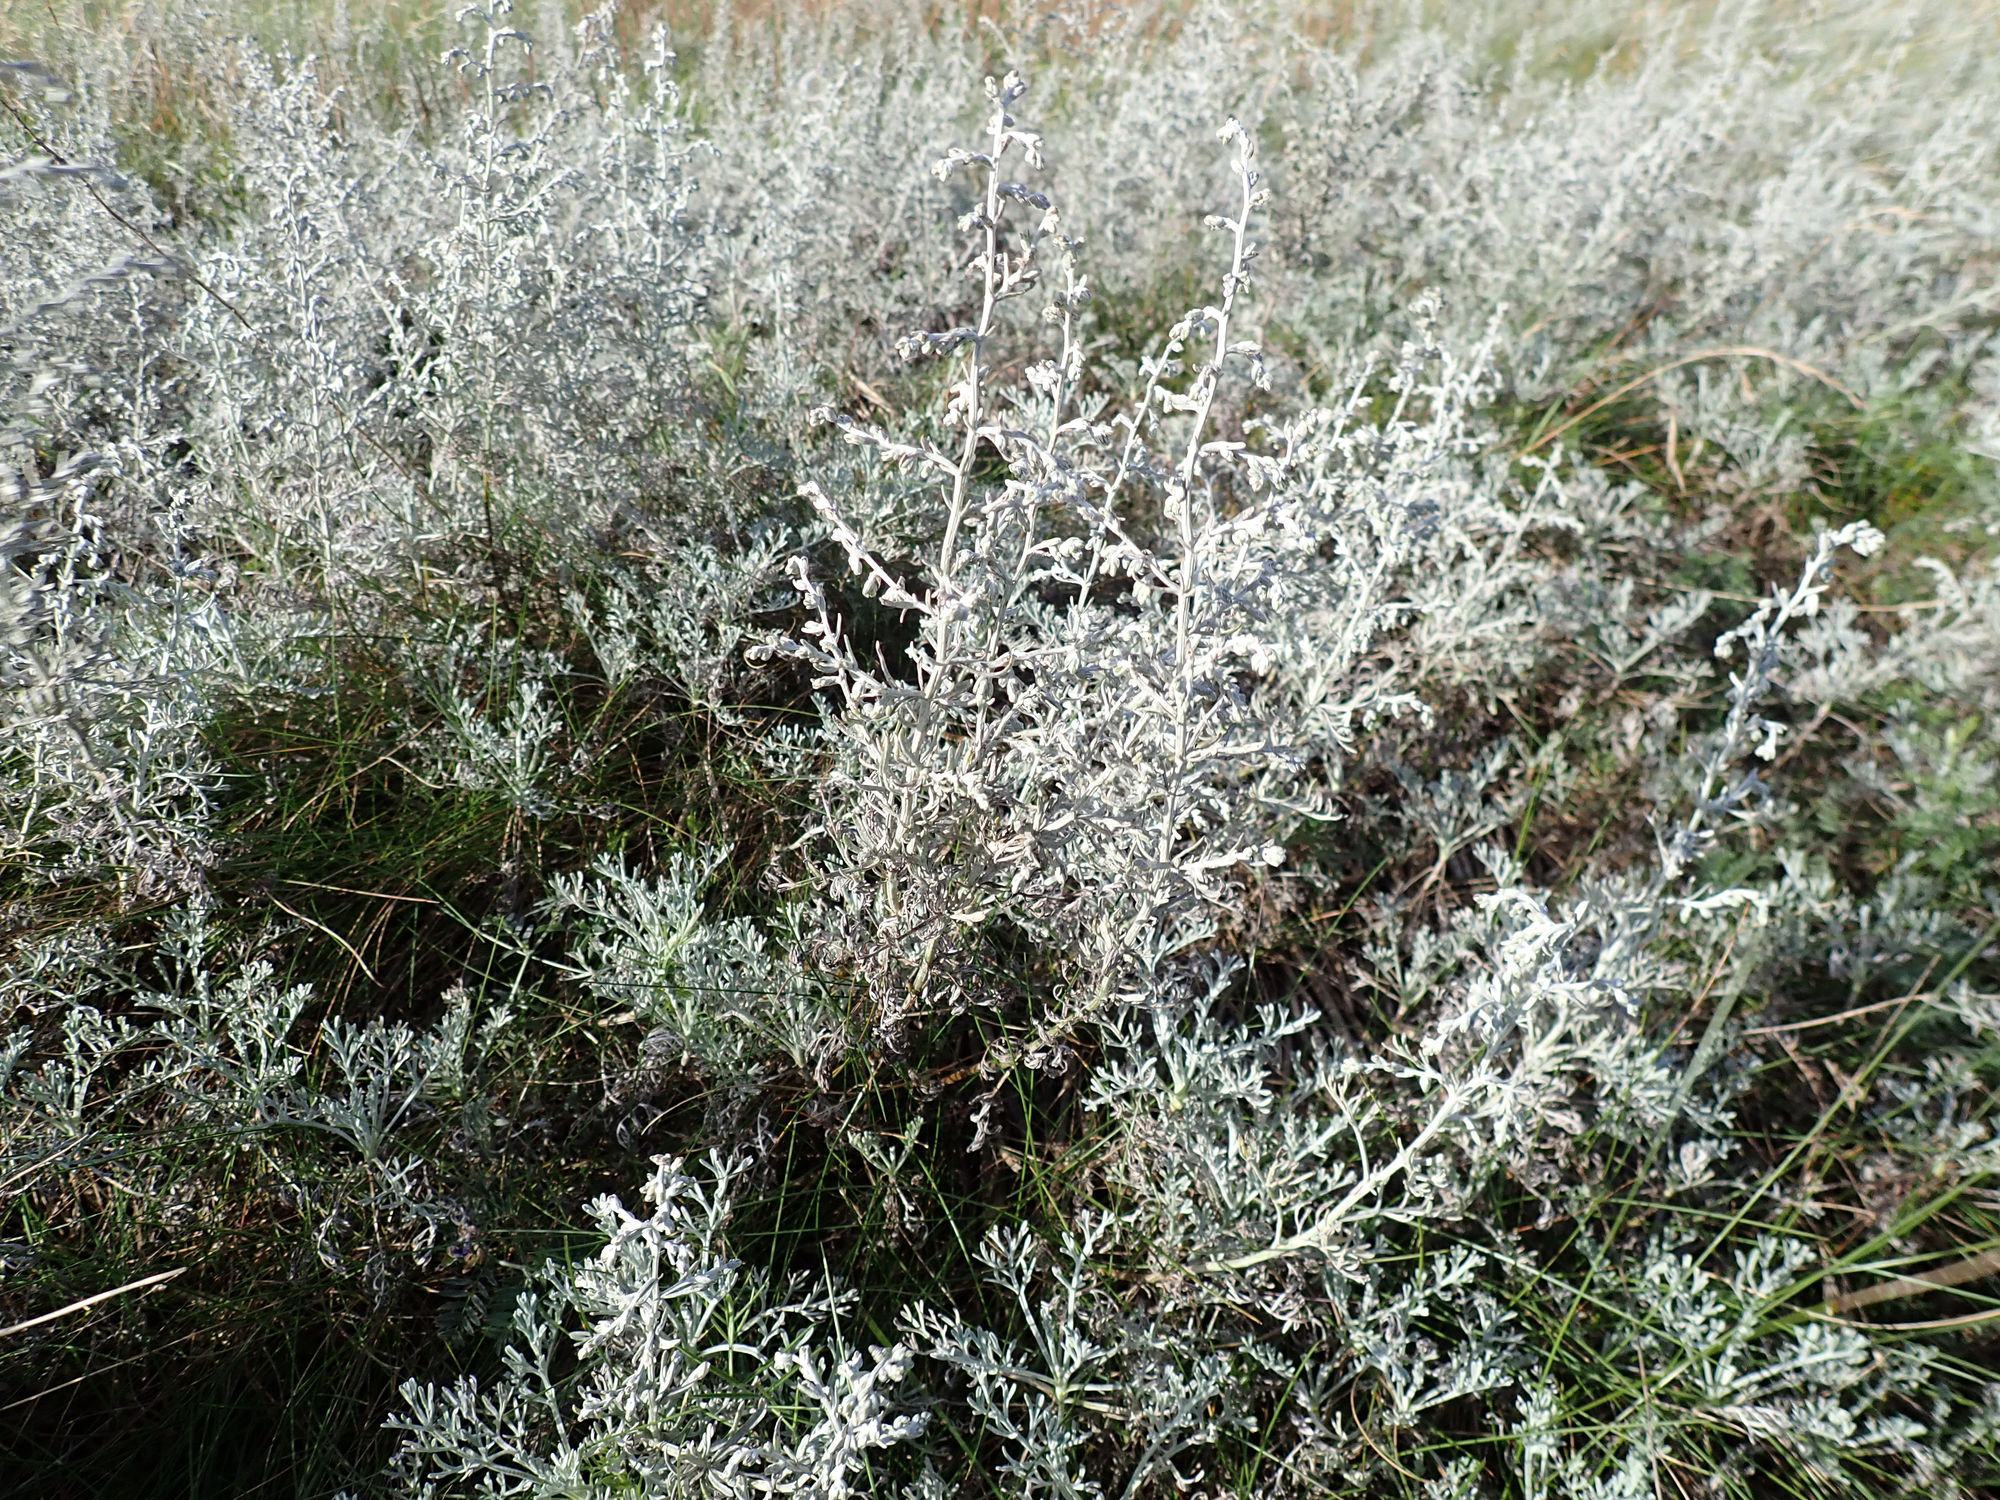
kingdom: Plantae
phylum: Tracheophyta
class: Magnoliopsida
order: Asterales
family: Asteraceae
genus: Artemisia
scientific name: Artemisia maritima
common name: Strandmalurt
